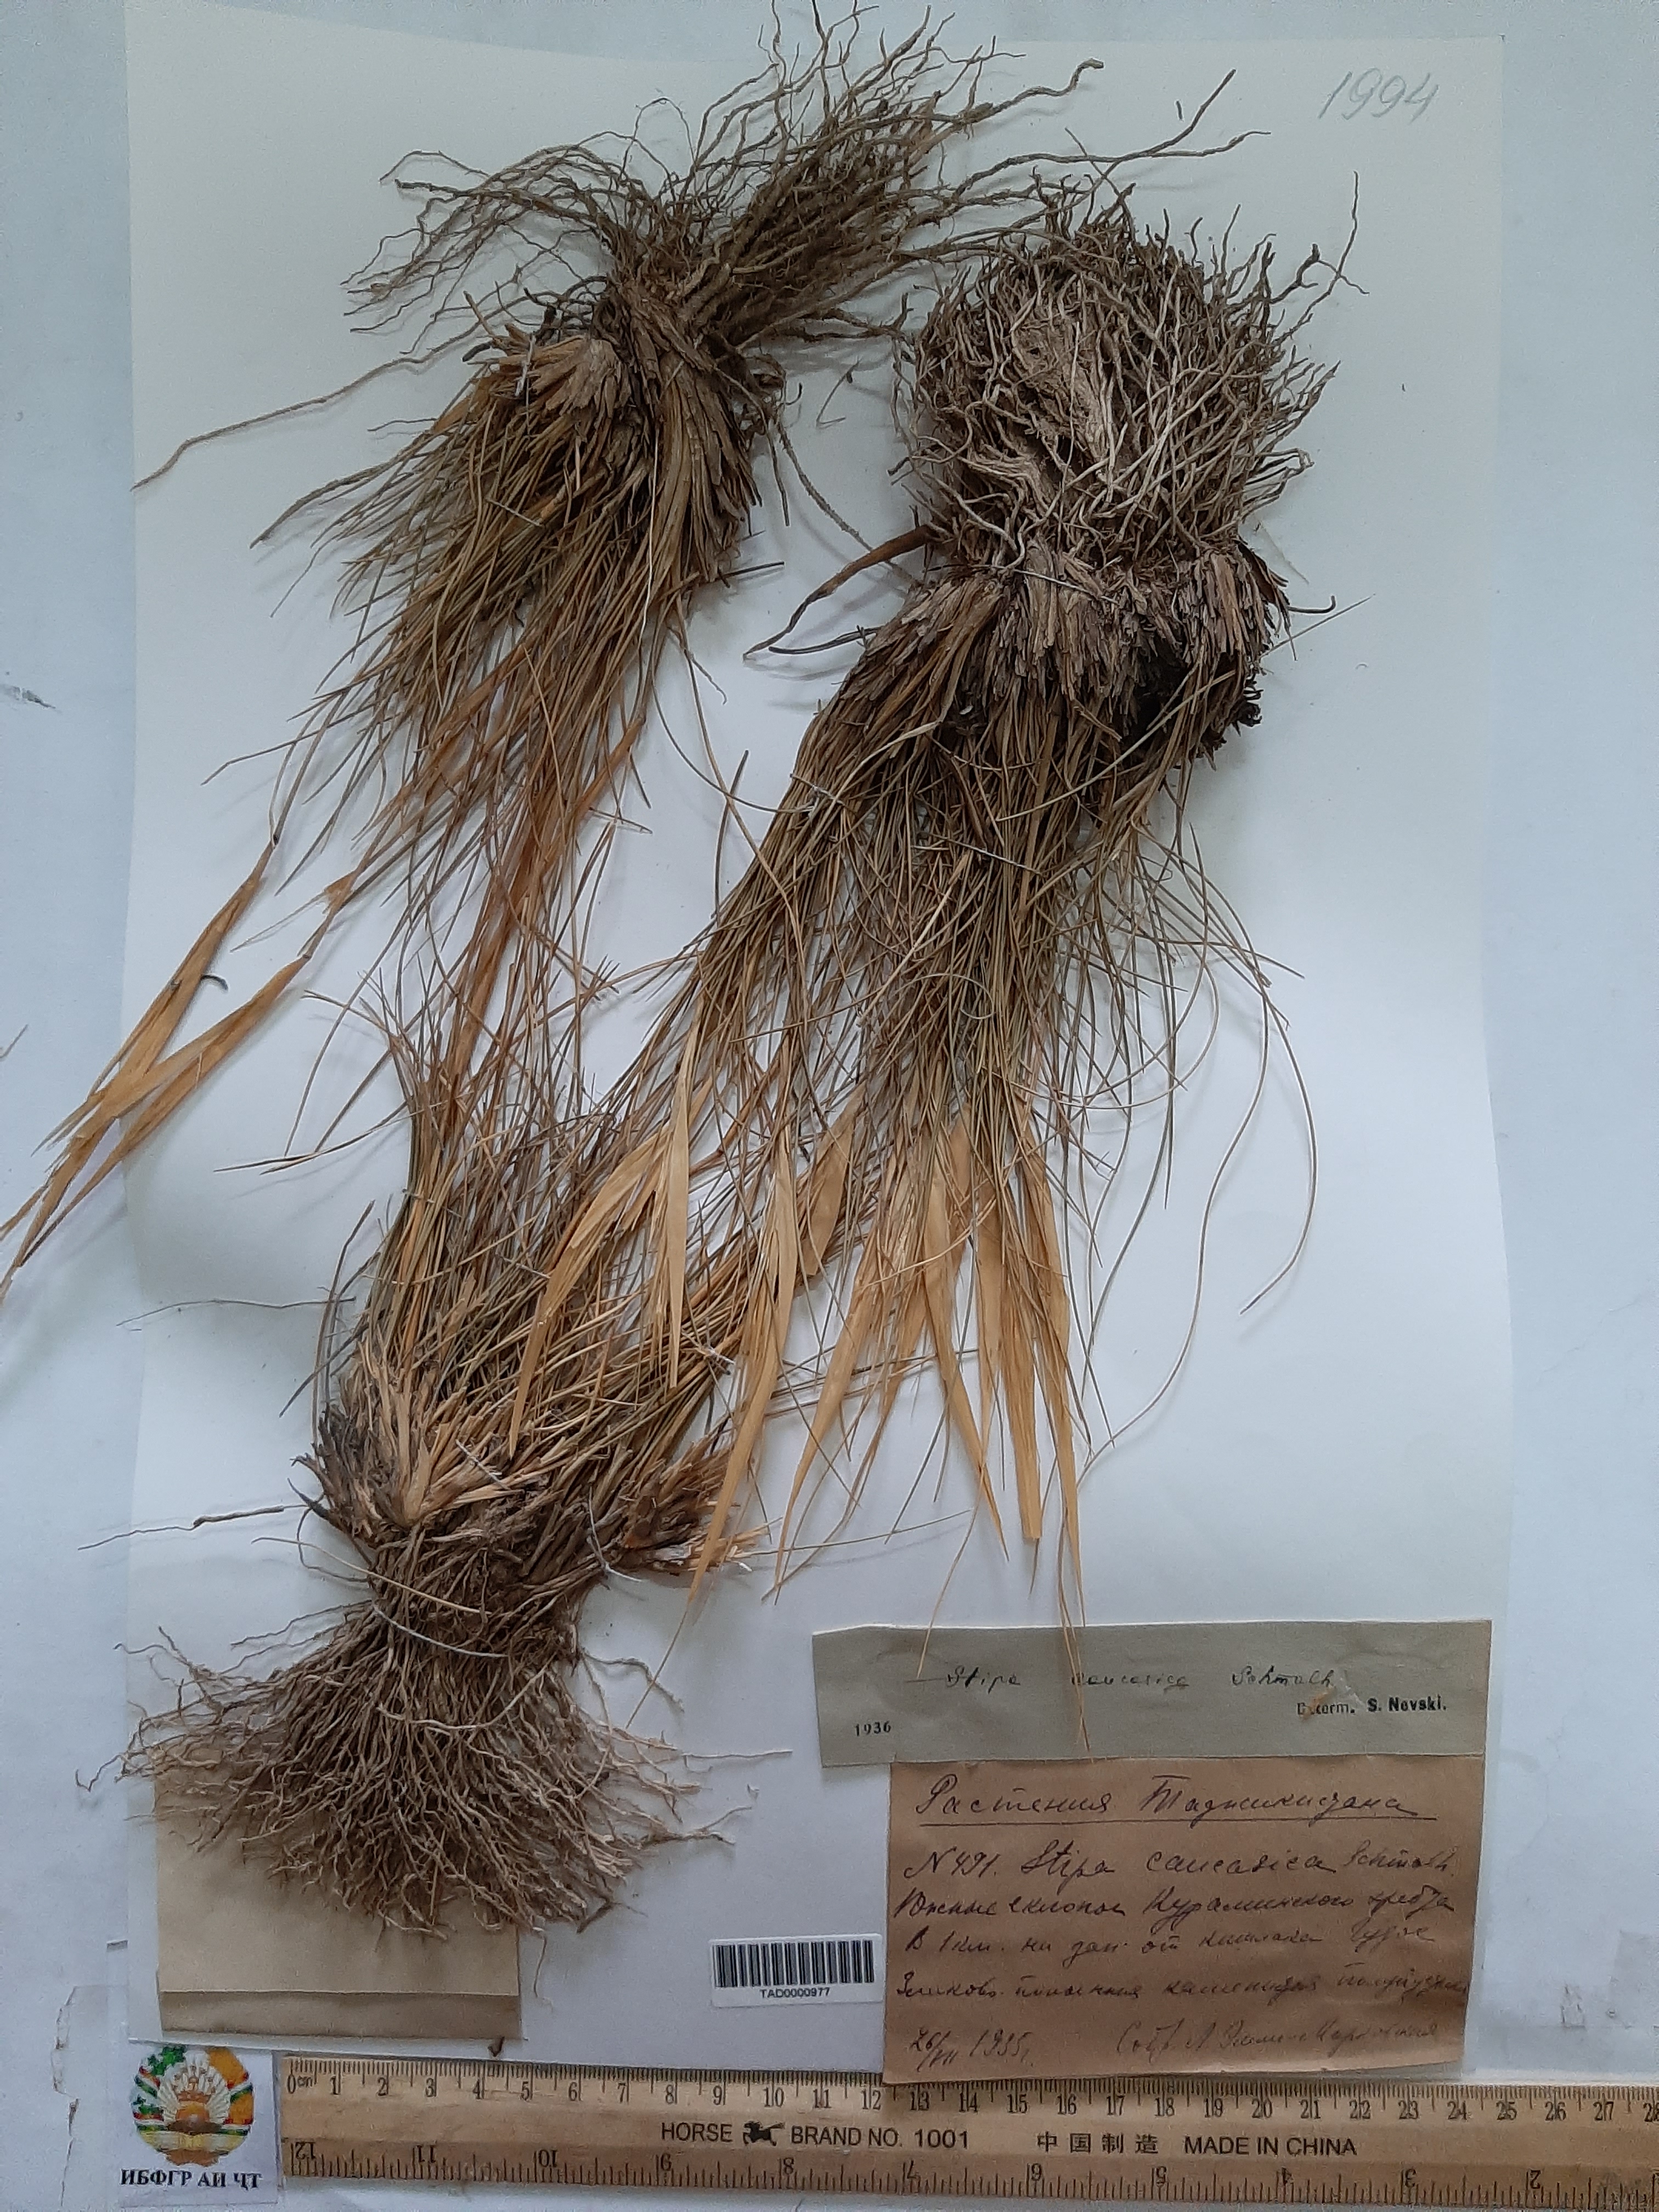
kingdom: Plantae
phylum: Tracheophyta
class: Liliopsida
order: Poales
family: Poaceae
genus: Stipa
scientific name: Stipa caucasica
